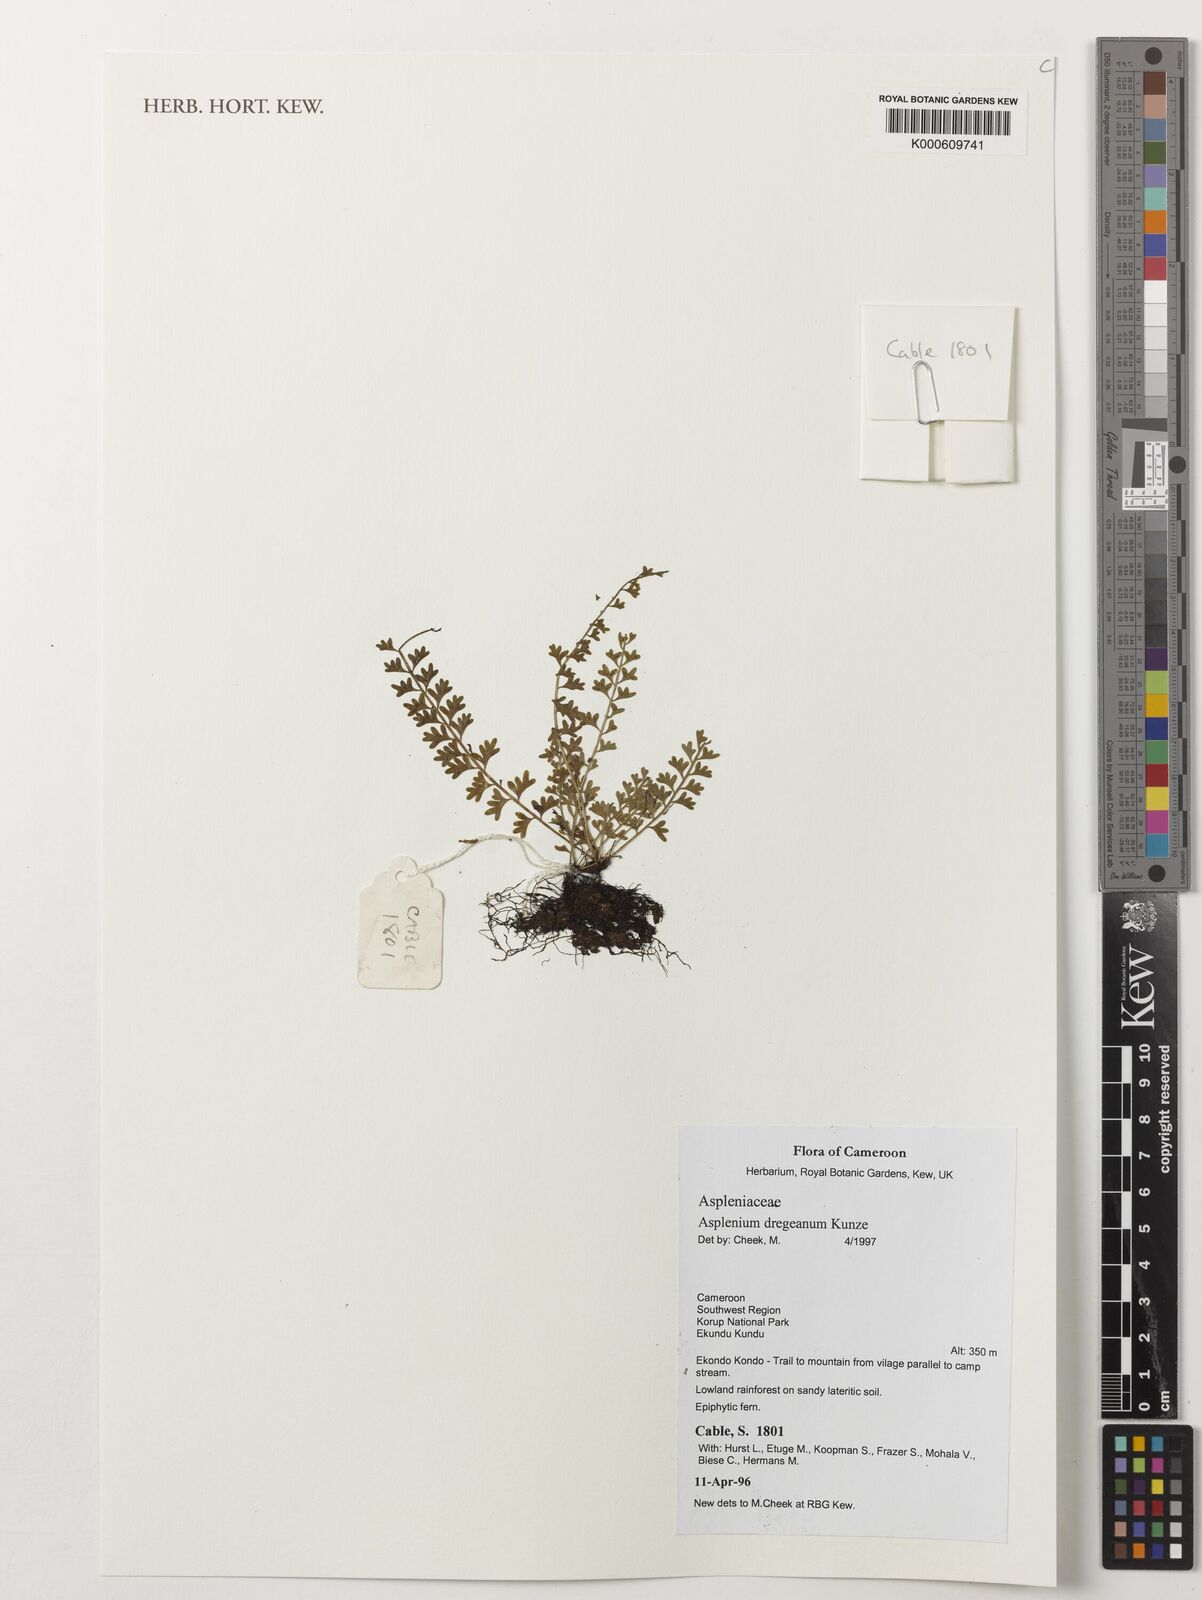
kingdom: Plantae
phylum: Tracheophyta
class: Polypodiopsida
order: Polypodiales
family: Aspleniaceae
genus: Asplenium
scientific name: Asplenium dregeanum
